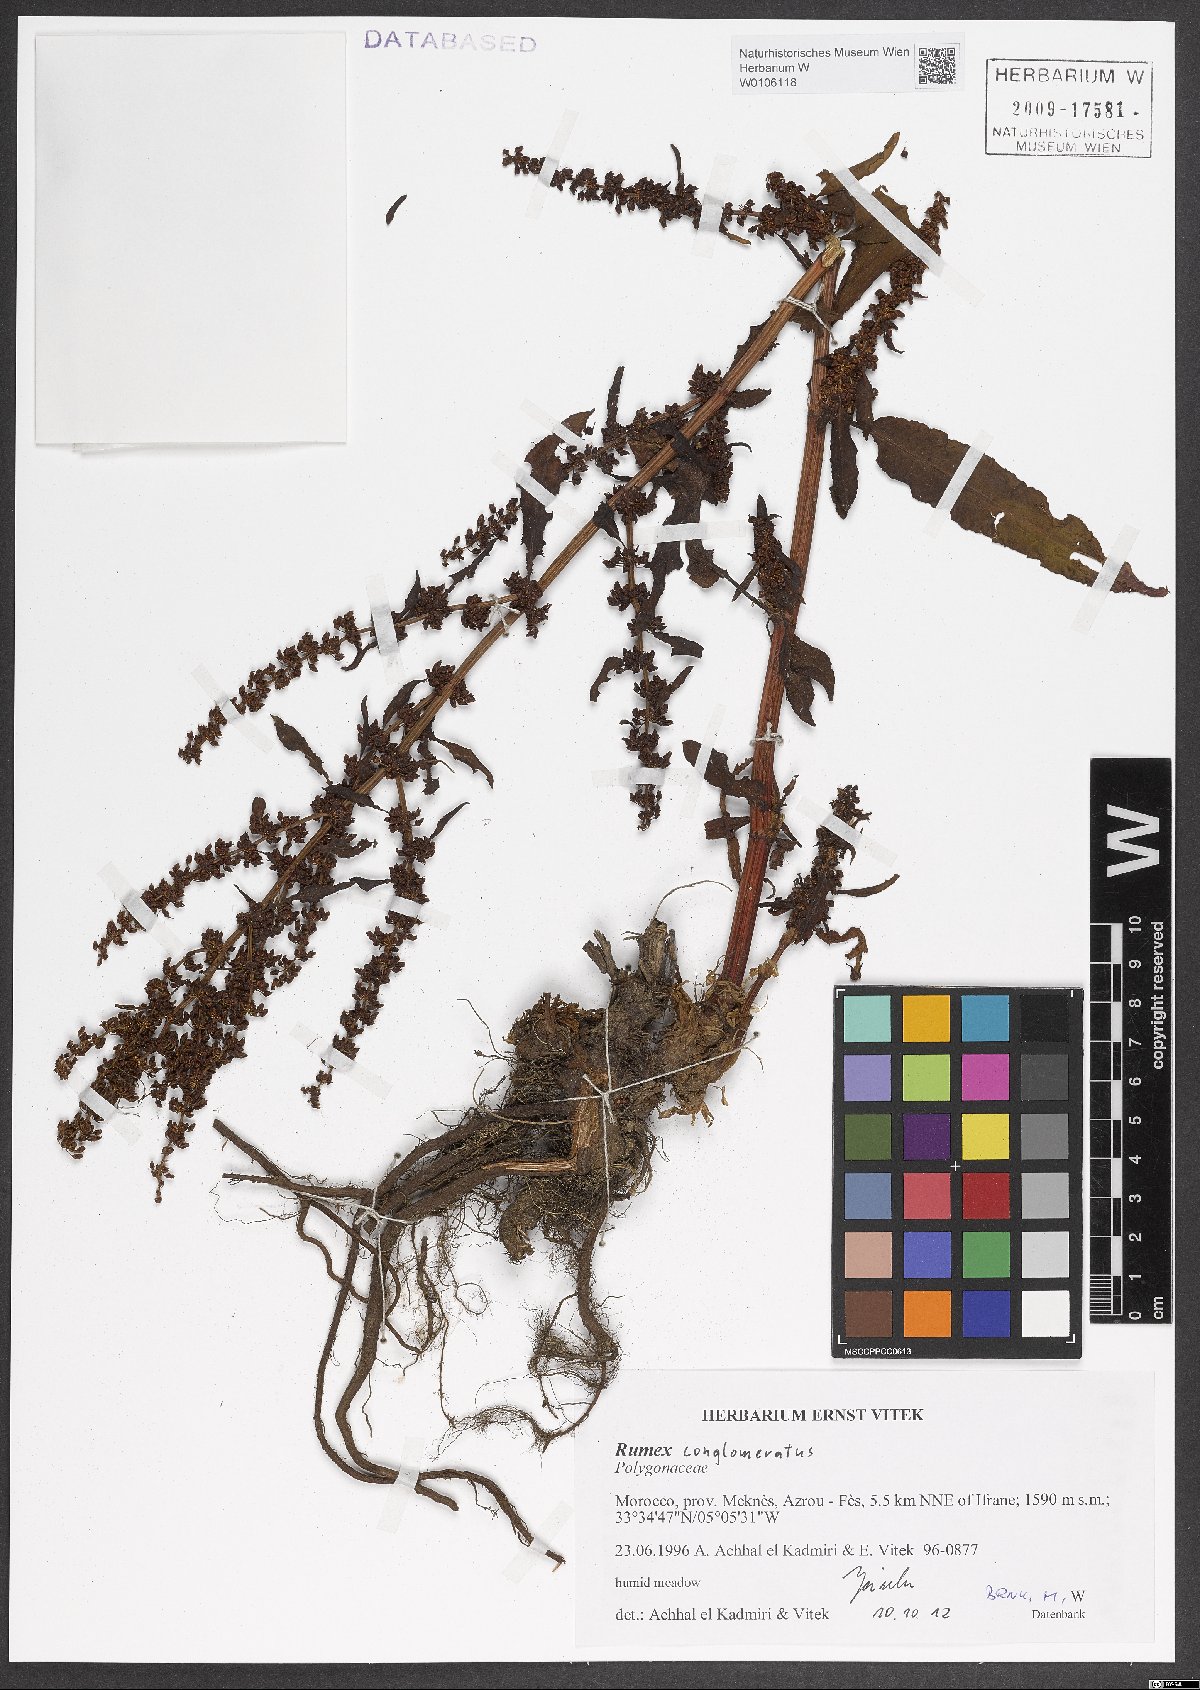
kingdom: Plantae
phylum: Tracheophyta
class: Magnoliopsida
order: Caryophyllales
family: Polygonaceae
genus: Rumex
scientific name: Rumex conglomeratus
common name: Clustered dock
